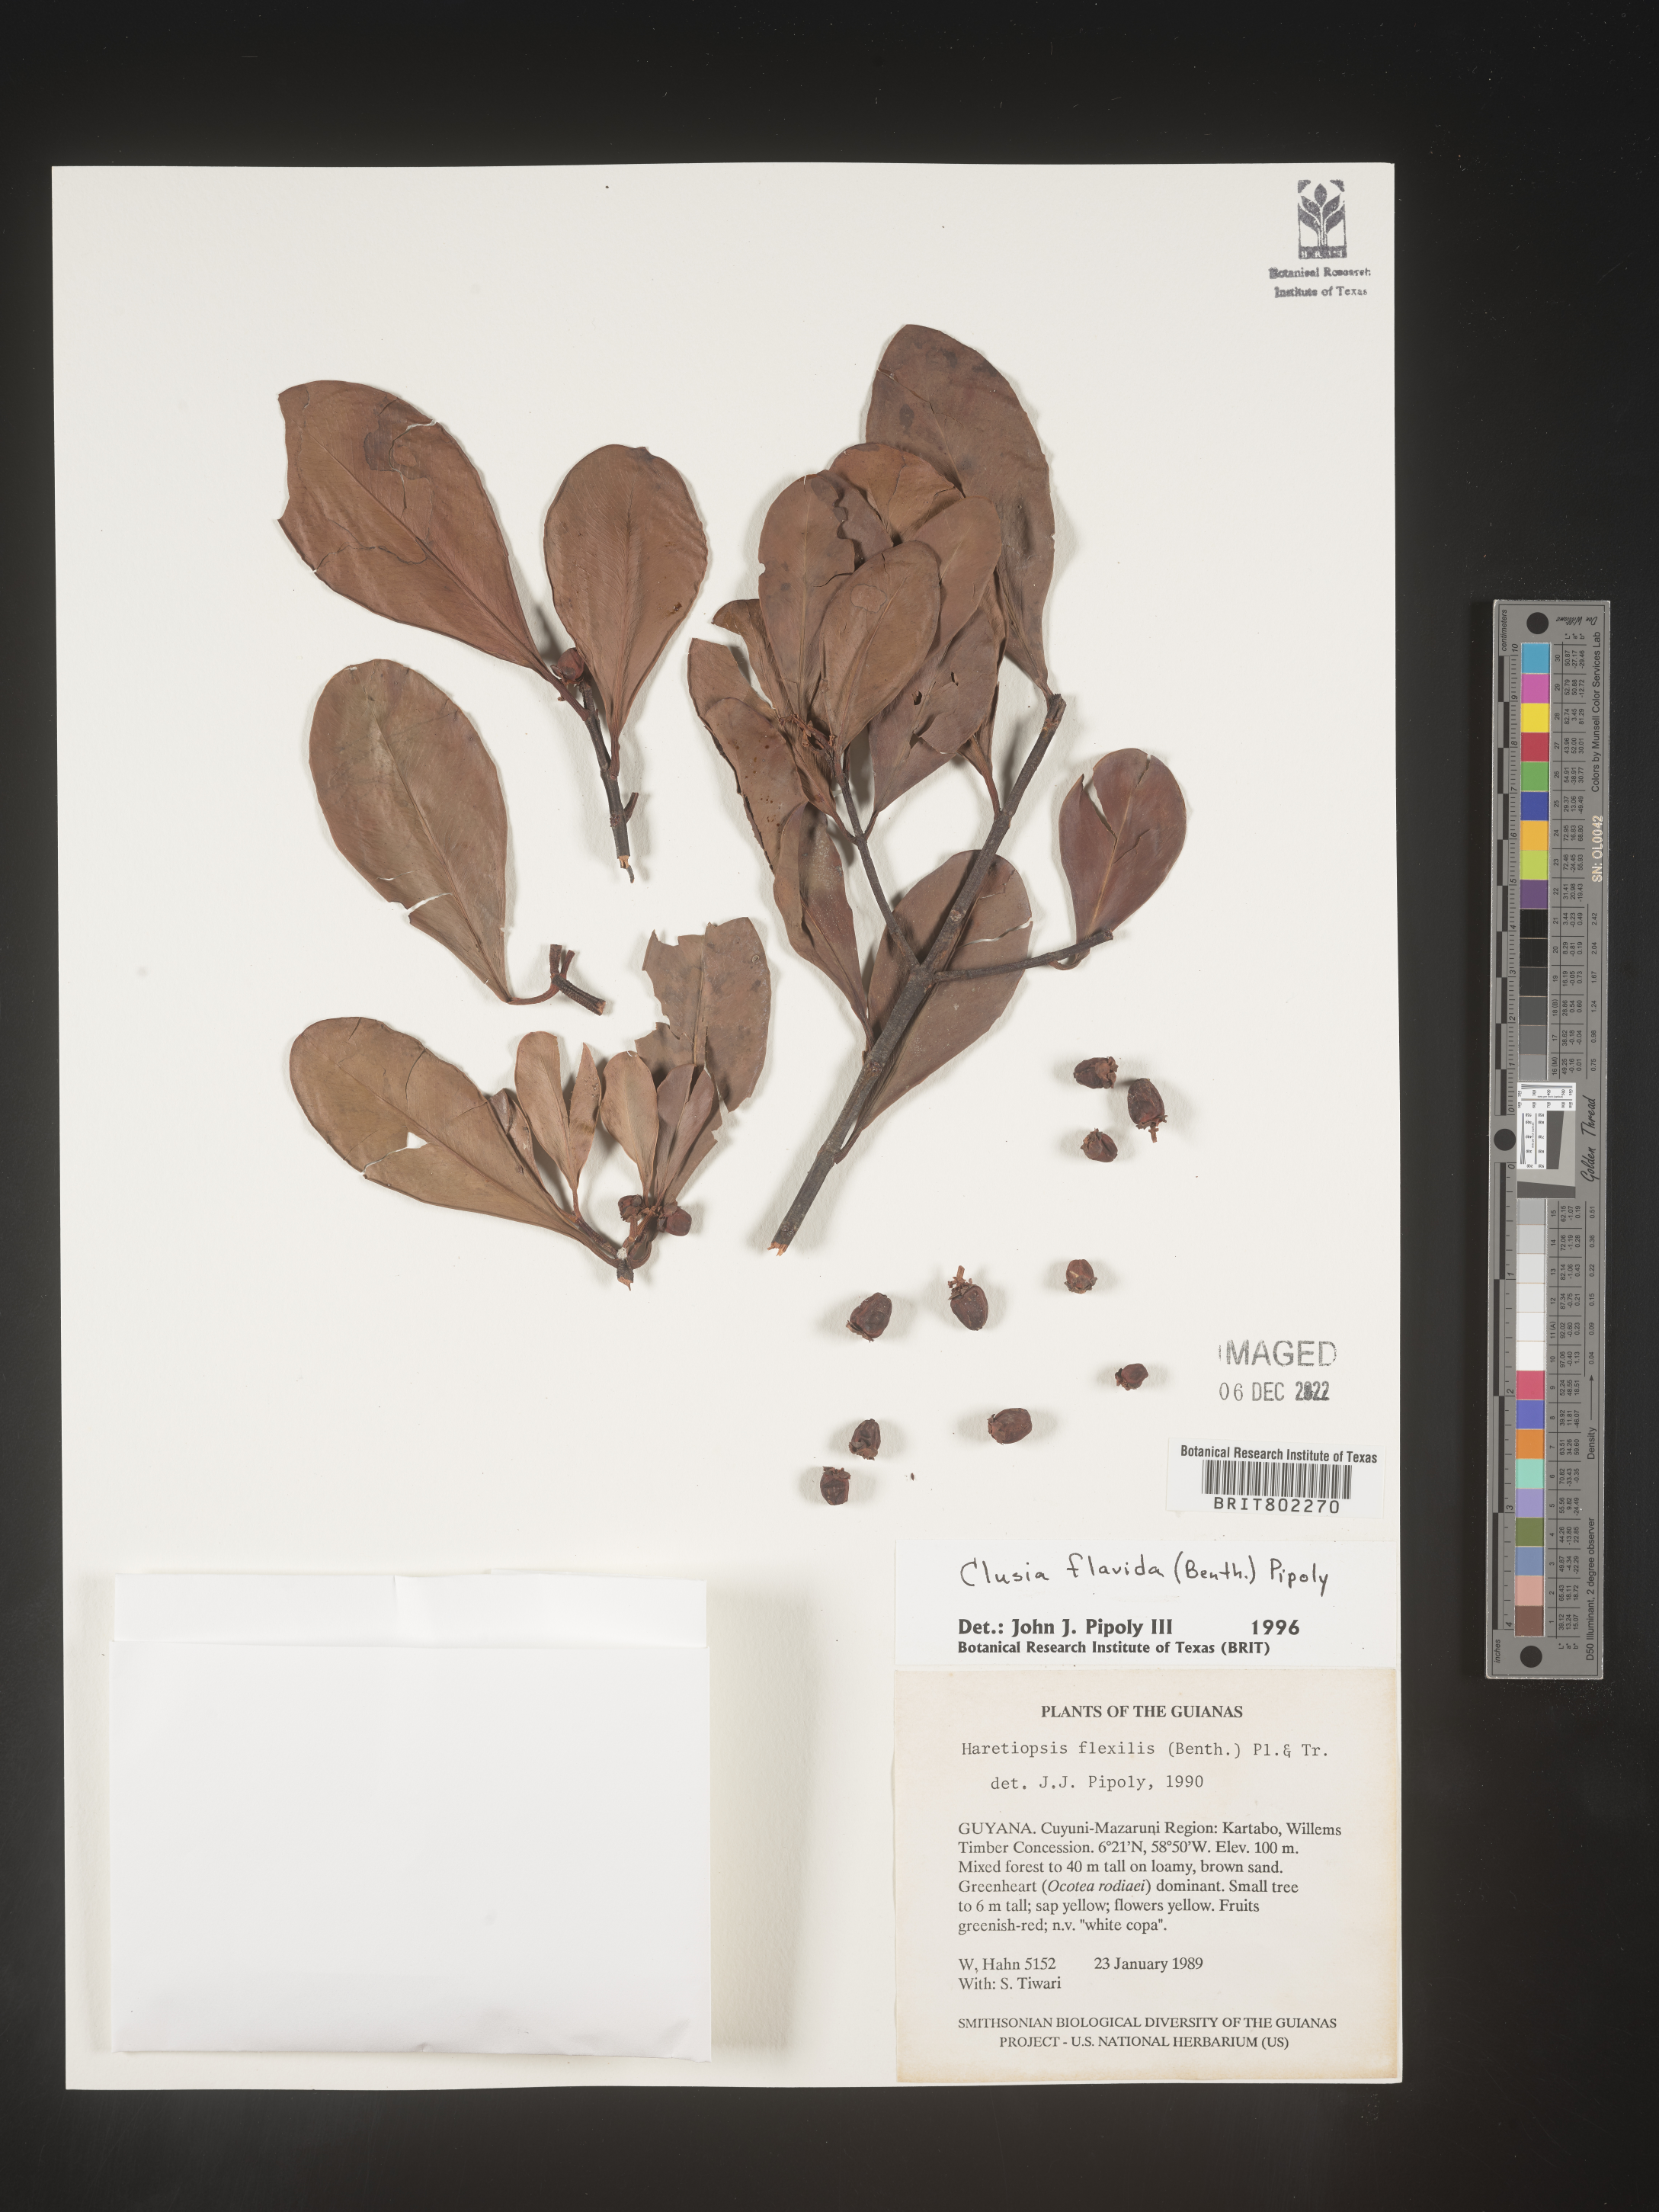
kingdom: Plantae
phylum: Tracheophyta
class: Magnoliopsida
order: Malpighiales
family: Clusiaceae
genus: Clusia
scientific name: Clusia flavida
